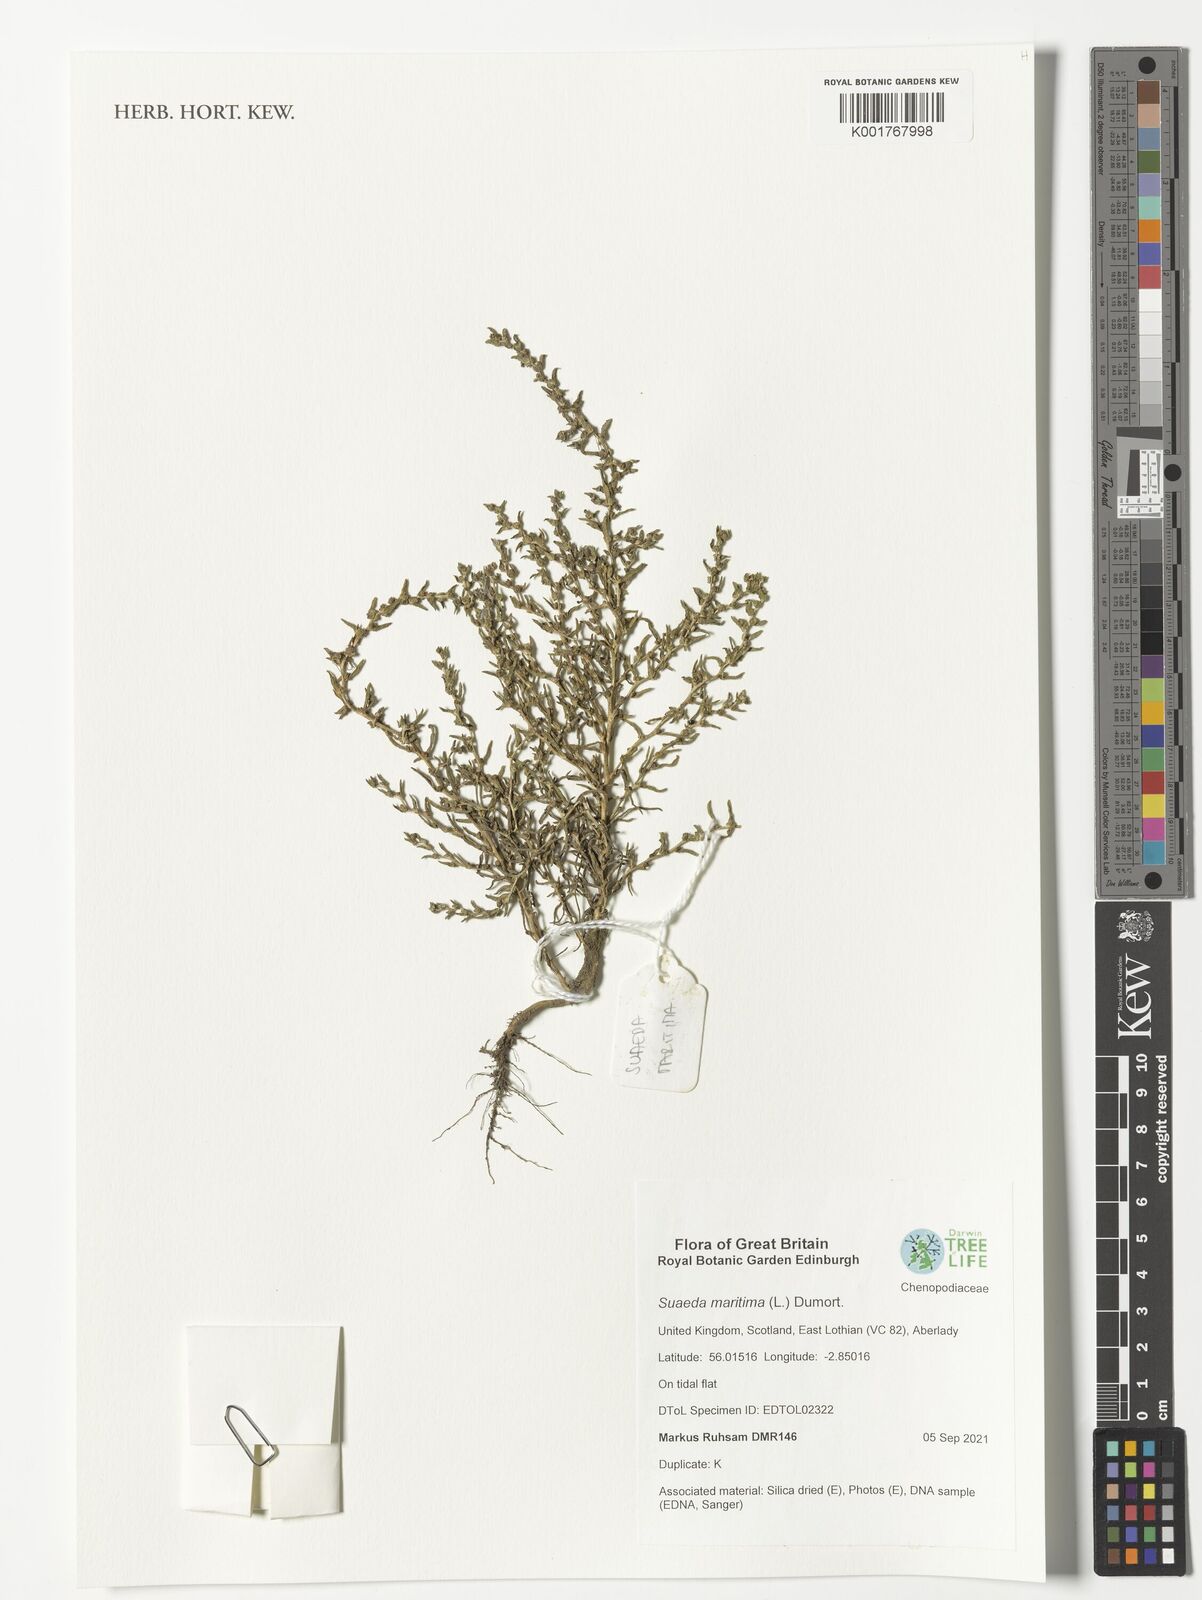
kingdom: Plantae
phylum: Tracheophyta
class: Magnoliopsida
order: Caryophyllales
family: Amaranthaceae
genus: Suaeda
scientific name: Suaeda maritima
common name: Annual sea-blite
